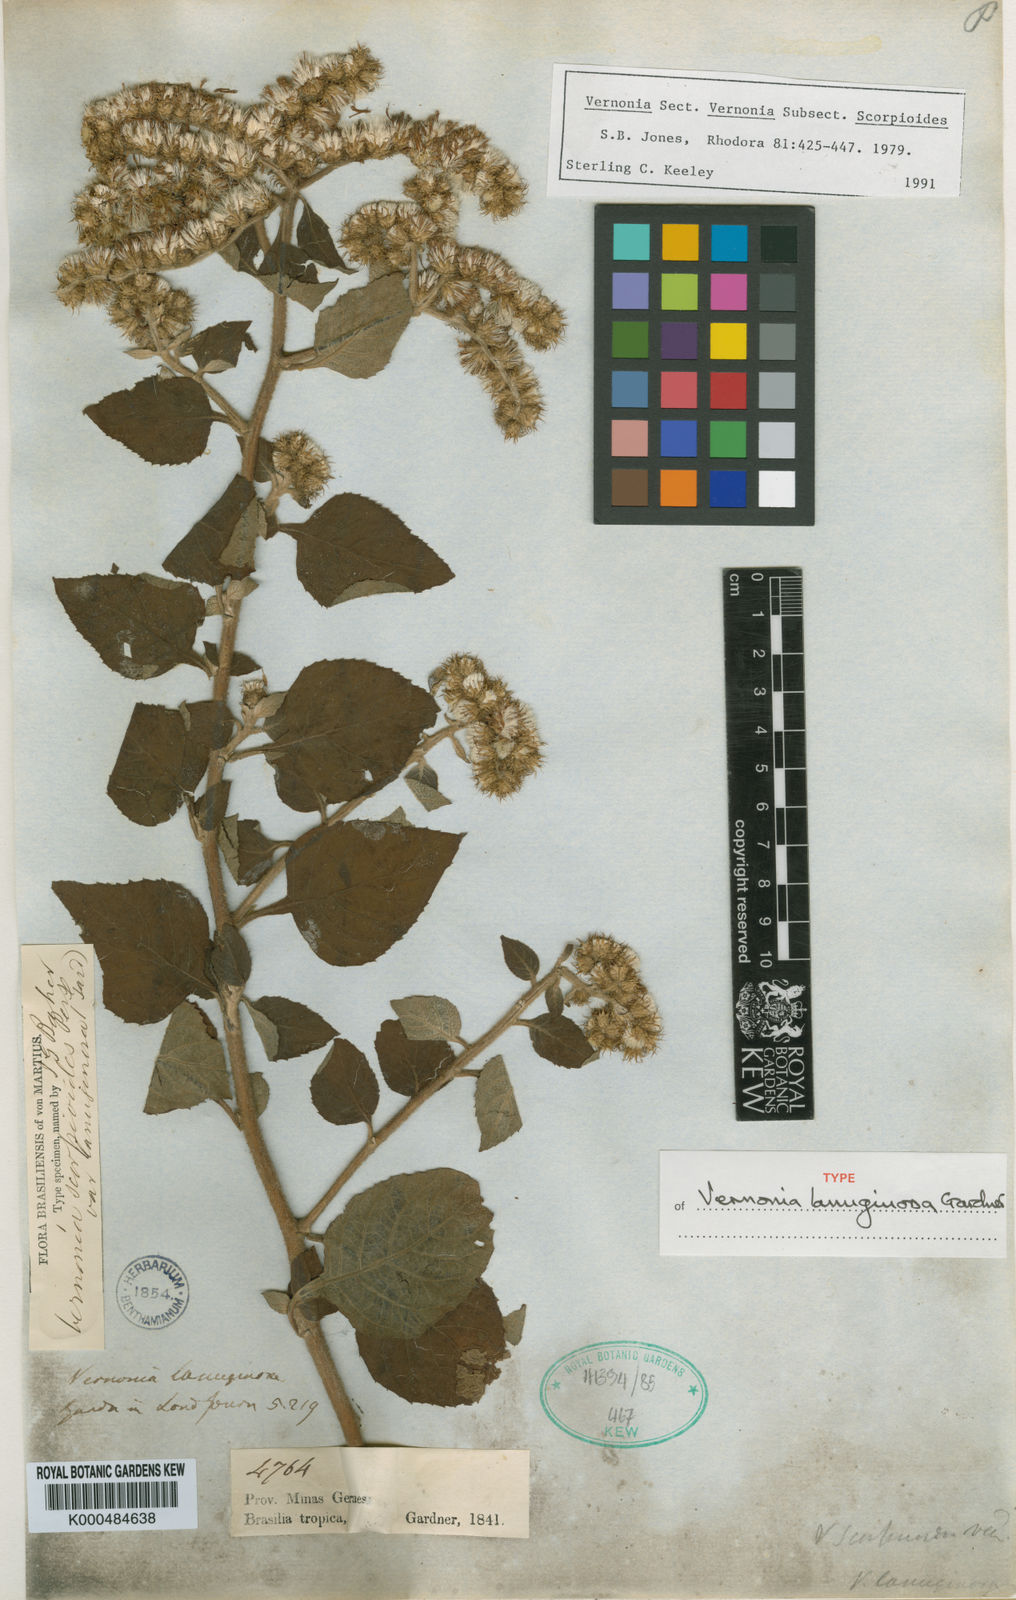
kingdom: Plantae
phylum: Tracheophyta
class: Magnoliopsida
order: Asterales
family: Asteraceae
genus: Lepidaploa
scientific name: Lepidaploa sororia
